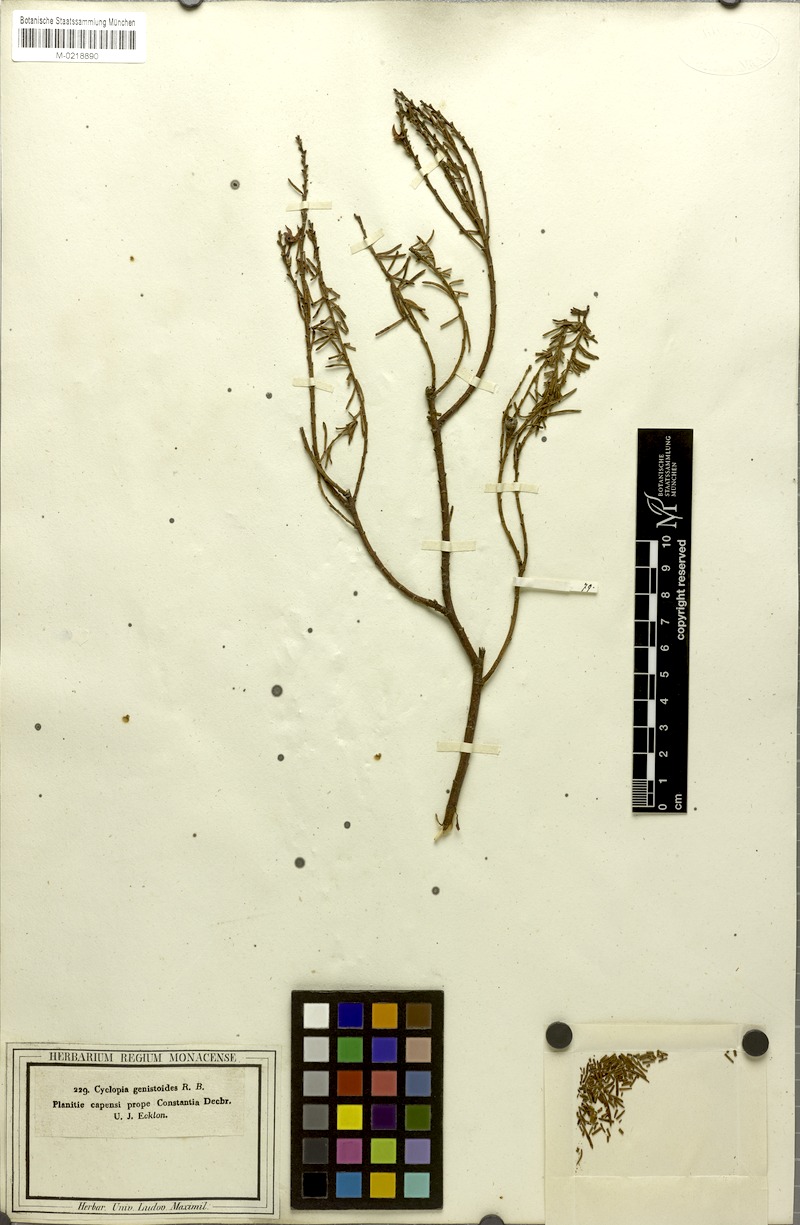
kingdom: Plantae
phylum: Tracheophyta
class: Magnoliopsida
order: Fabales
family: Fabaceae
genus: Cyclopia
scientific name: Cyclopia genistoides
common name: Honeybush tea
